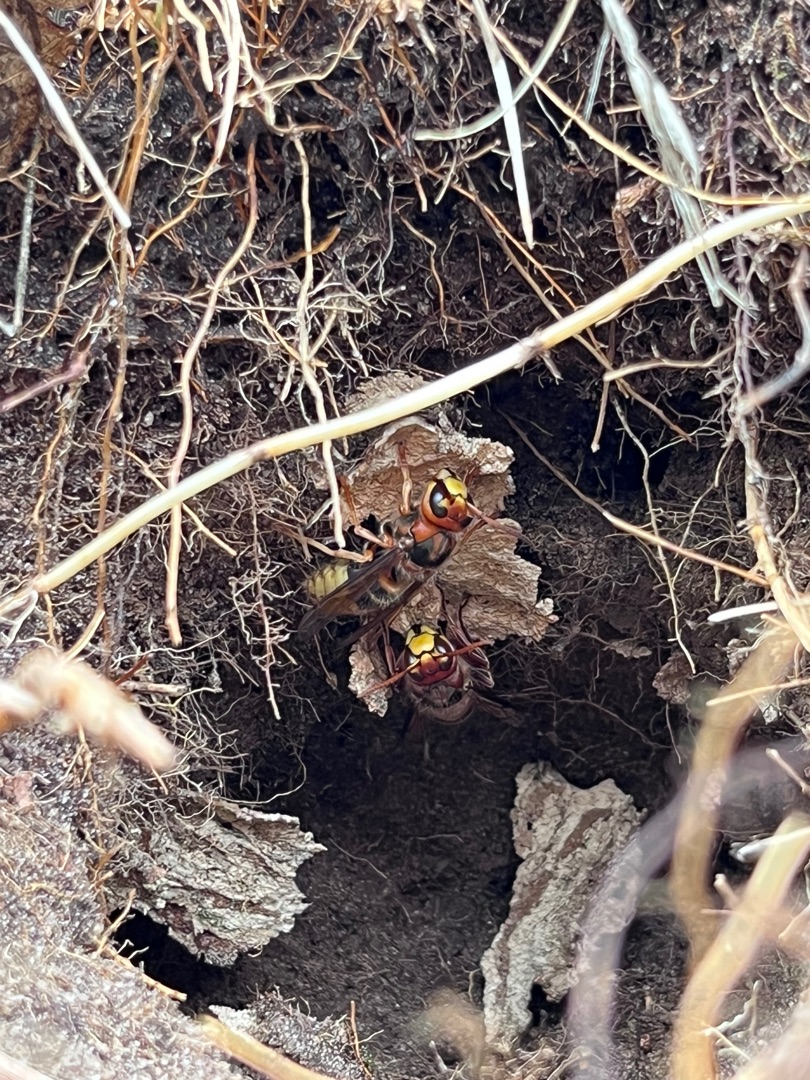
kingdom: Animalia
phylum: Arthropoda
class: Insecta
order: Hymenoptera
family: Vespidae
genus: Vespa
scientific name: Vespa crabro
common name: Stor gedehams
